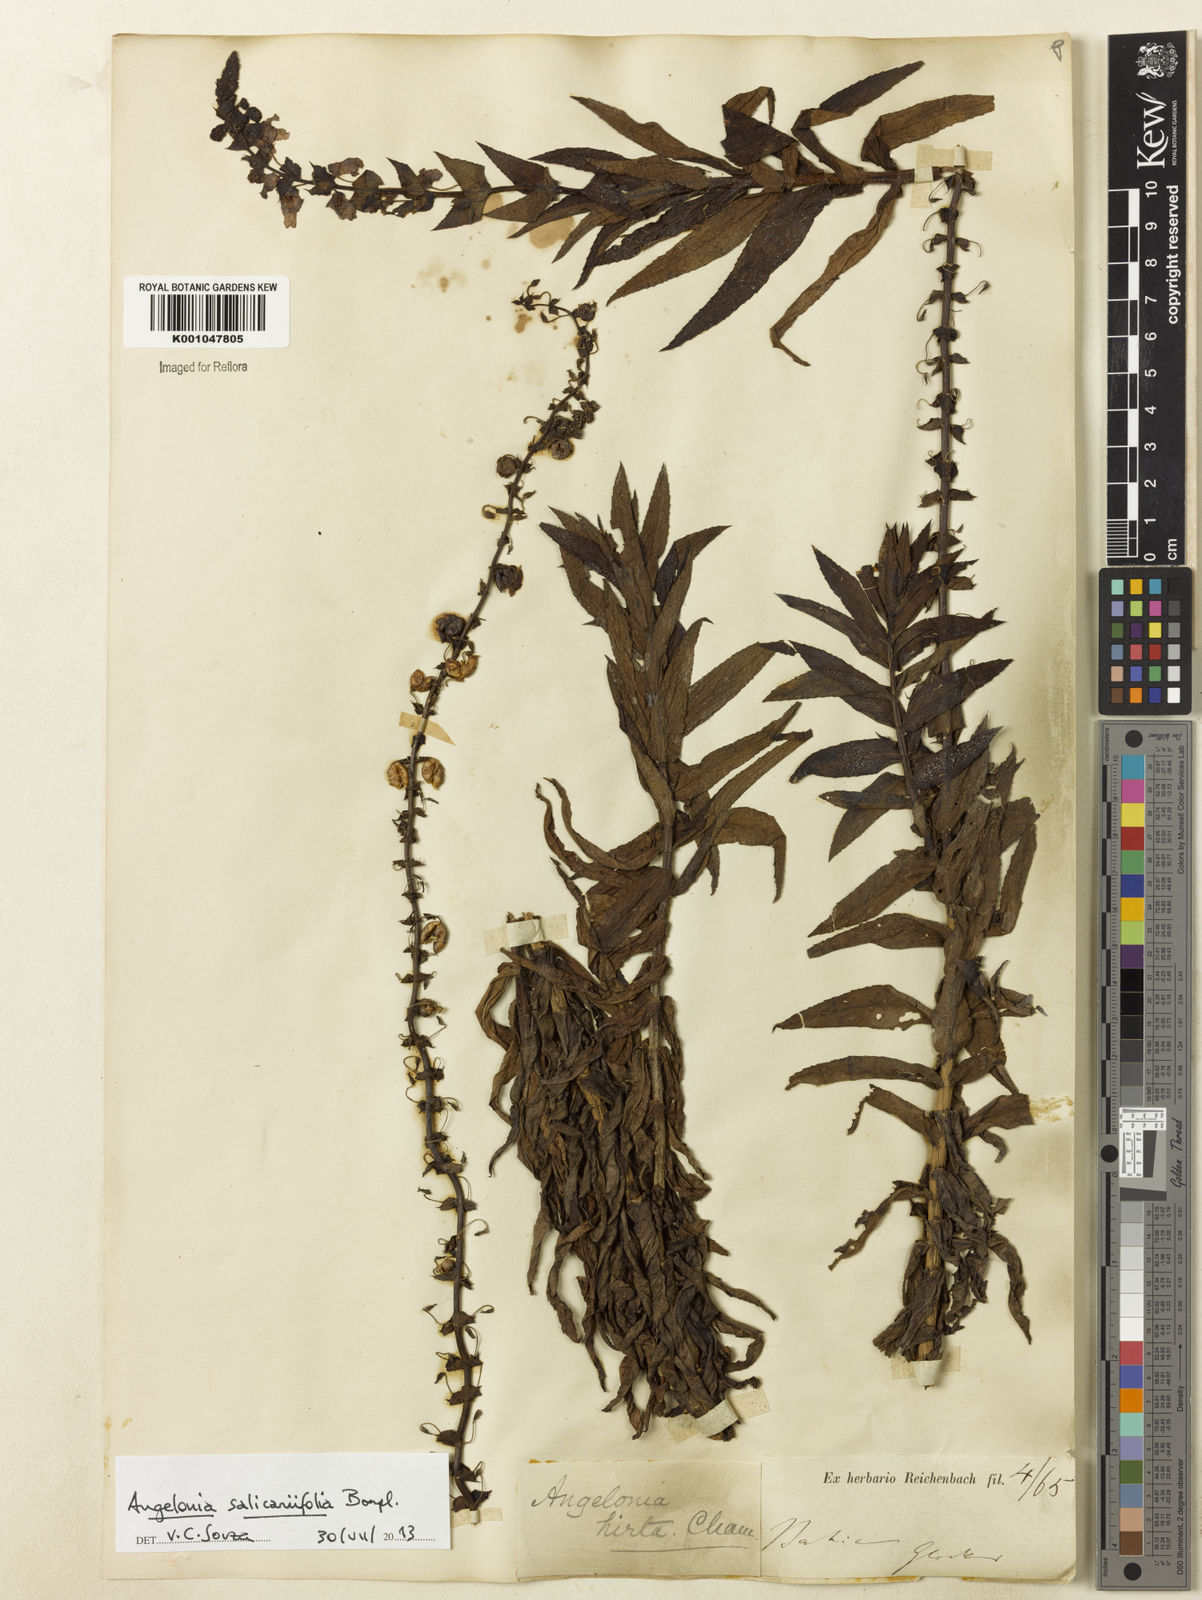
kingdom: Plantae
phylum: Tracheophyta
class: Magnoliopsida
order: Lamiales
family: Plantaginaceae
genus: Angelonia
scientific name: Angelonia salicariifolia
